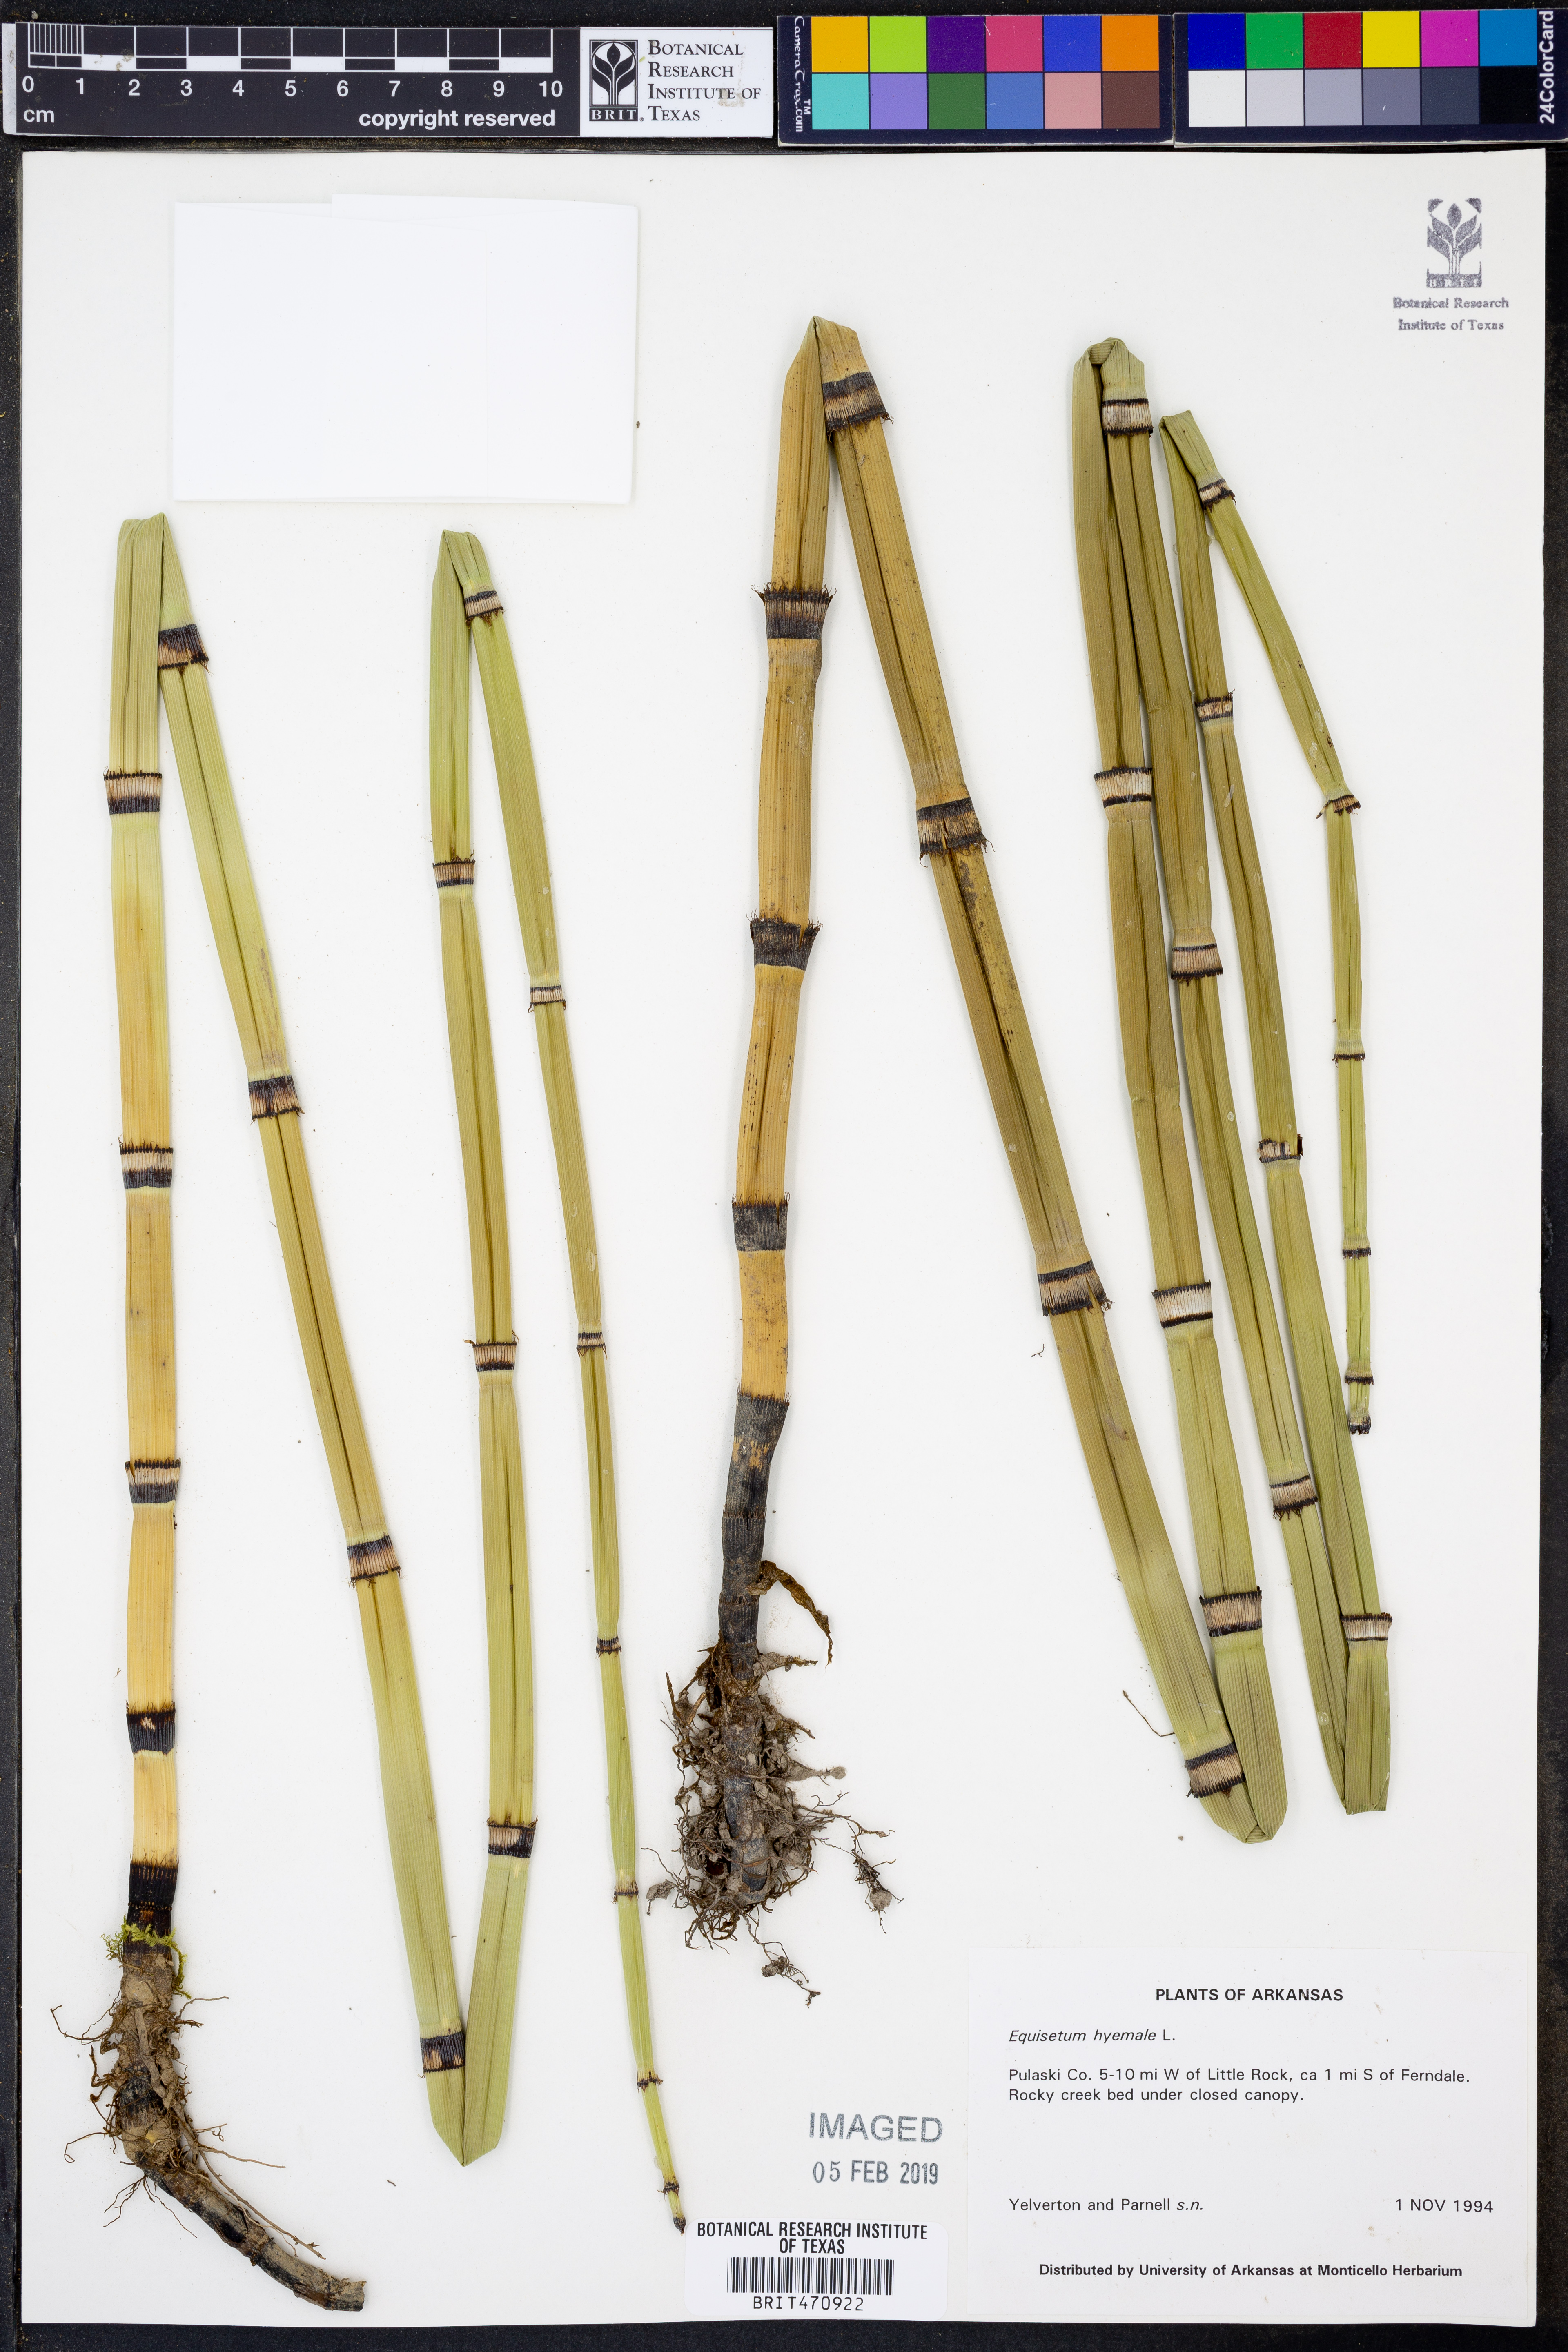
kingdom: Plantae
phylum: Tracheophyta
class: Polypodiopsida
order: Equisetales
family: Equisetaceae
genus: Equisetum
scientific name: Equisetum hyemale
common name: Rough horsetail
